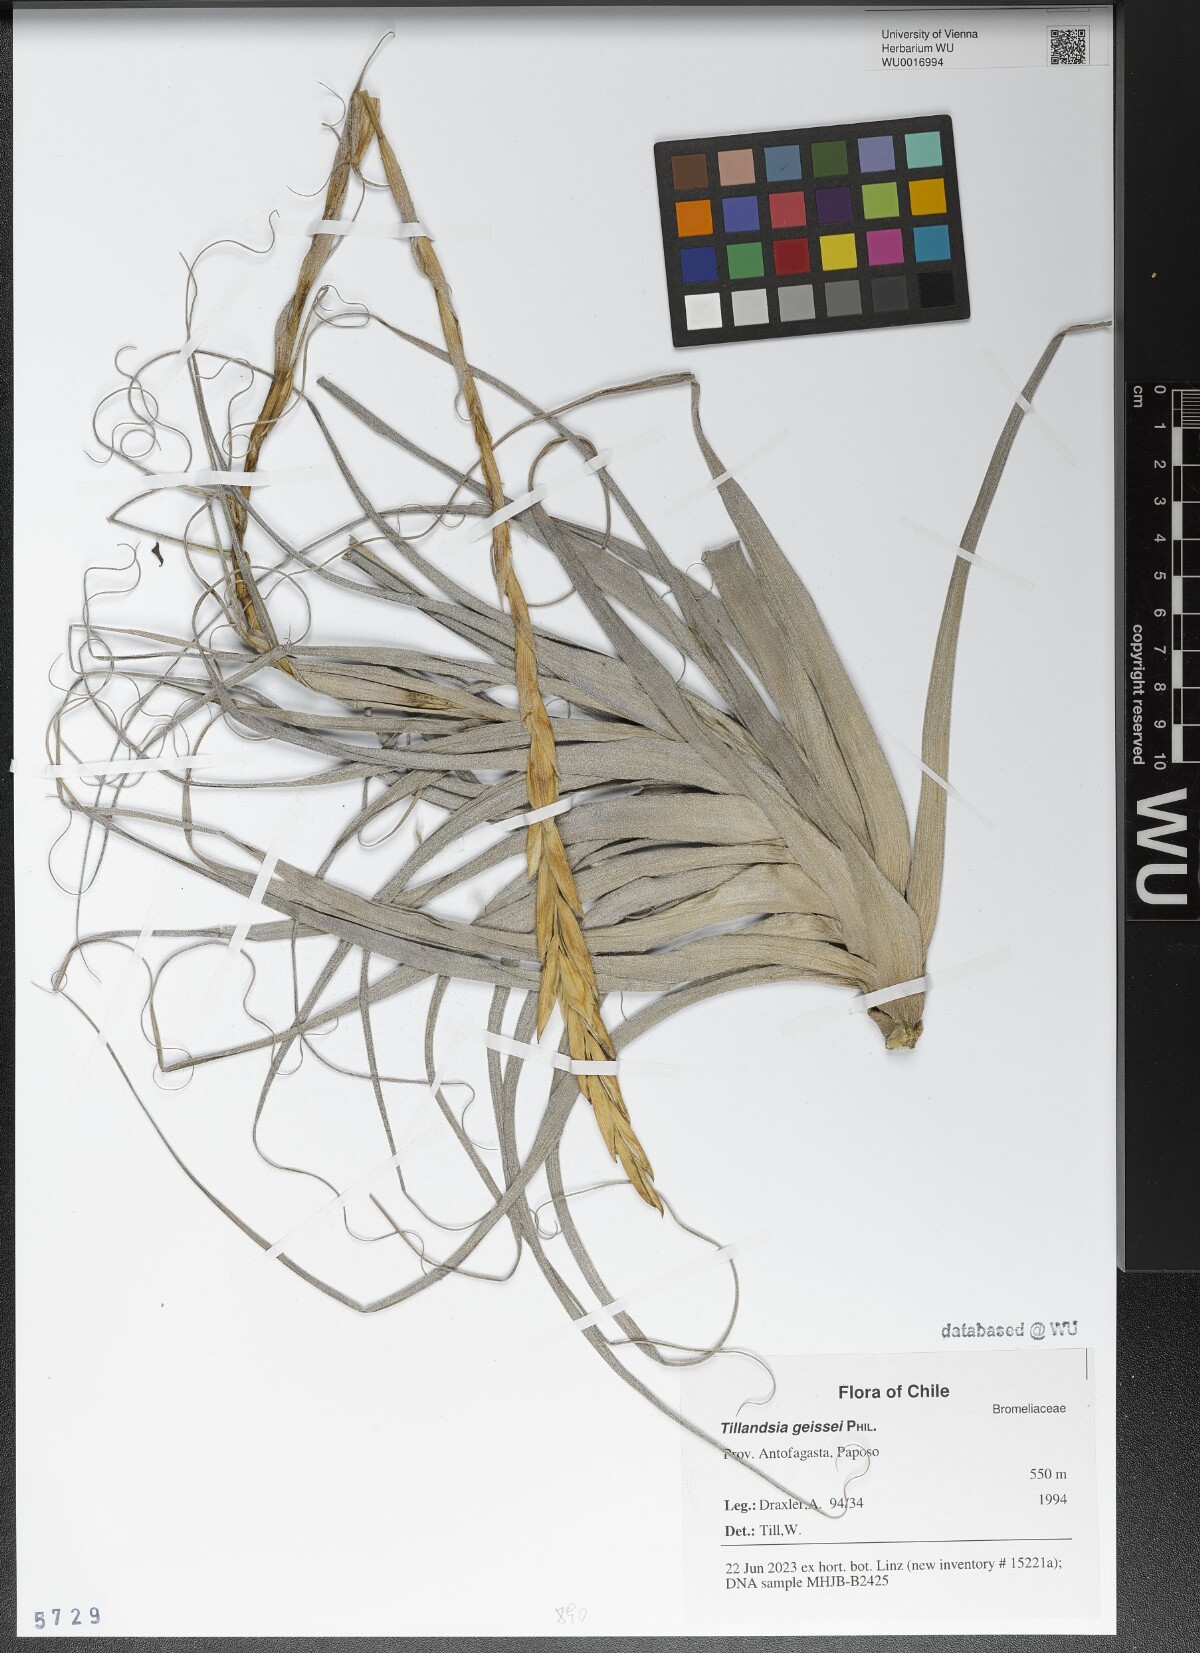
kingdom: Plantae
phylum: Tracheophyta
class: Liliopsida
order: Poales
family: Bromeliaceae
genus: Tillandsia
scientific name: Tillandsia geissei
